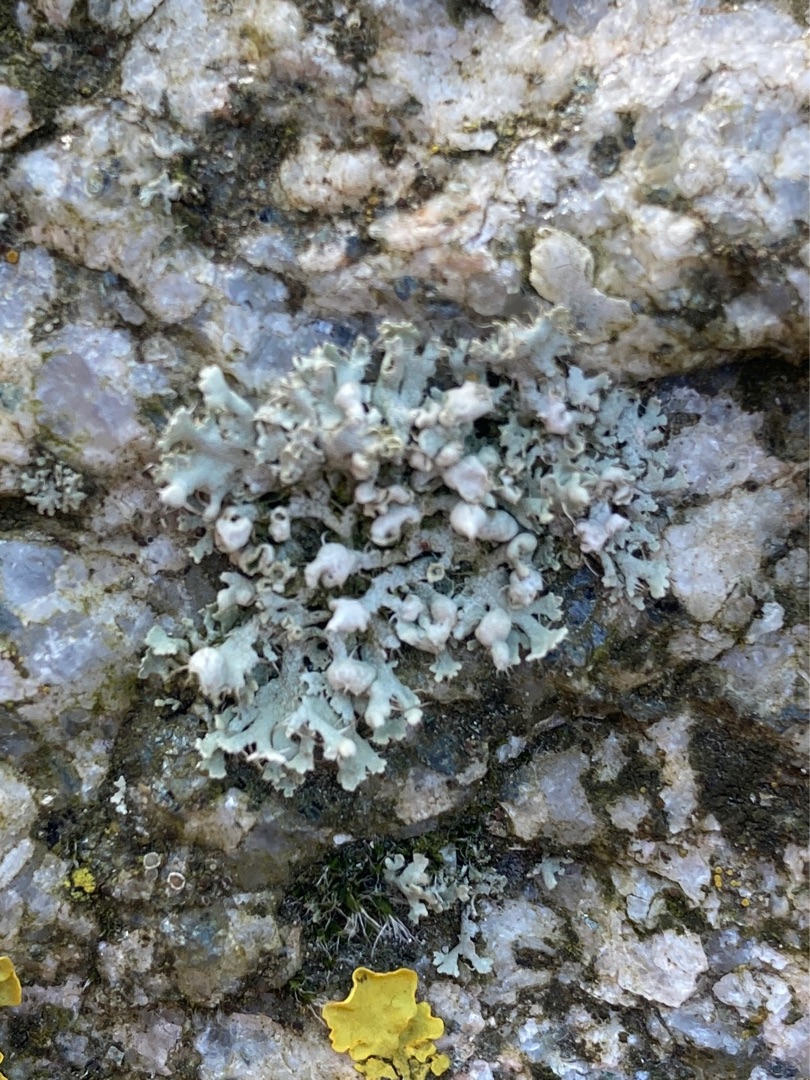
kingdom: Fungi
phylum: Ascomycota
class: Lecanoromycetes
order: Caliciales
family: Physciaceae
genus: Physcia
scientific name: Physcia adscendens
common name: Hætte-rosetlav
